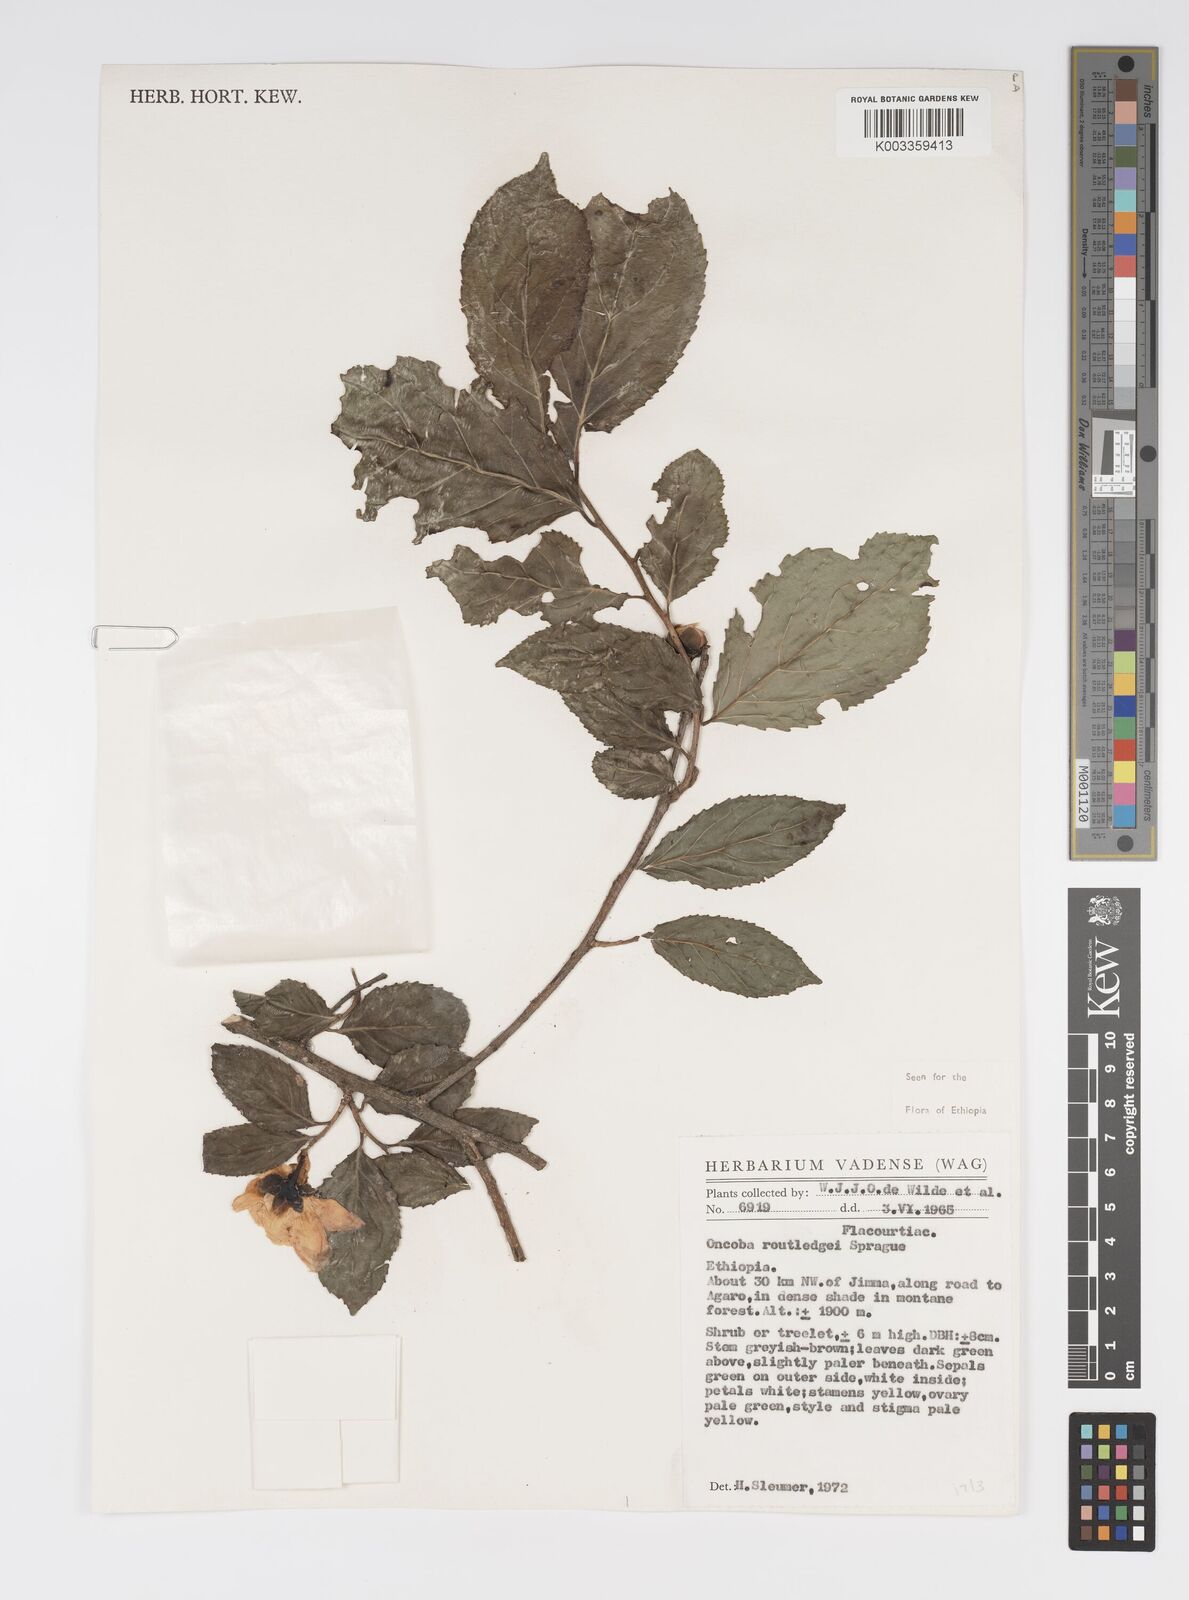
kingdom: Plantae
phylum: Tracheophyta
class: Magnoliopsida
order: Malpighiales
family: Salicaceae
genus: Oncoba
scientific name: Oncoba routledgei
